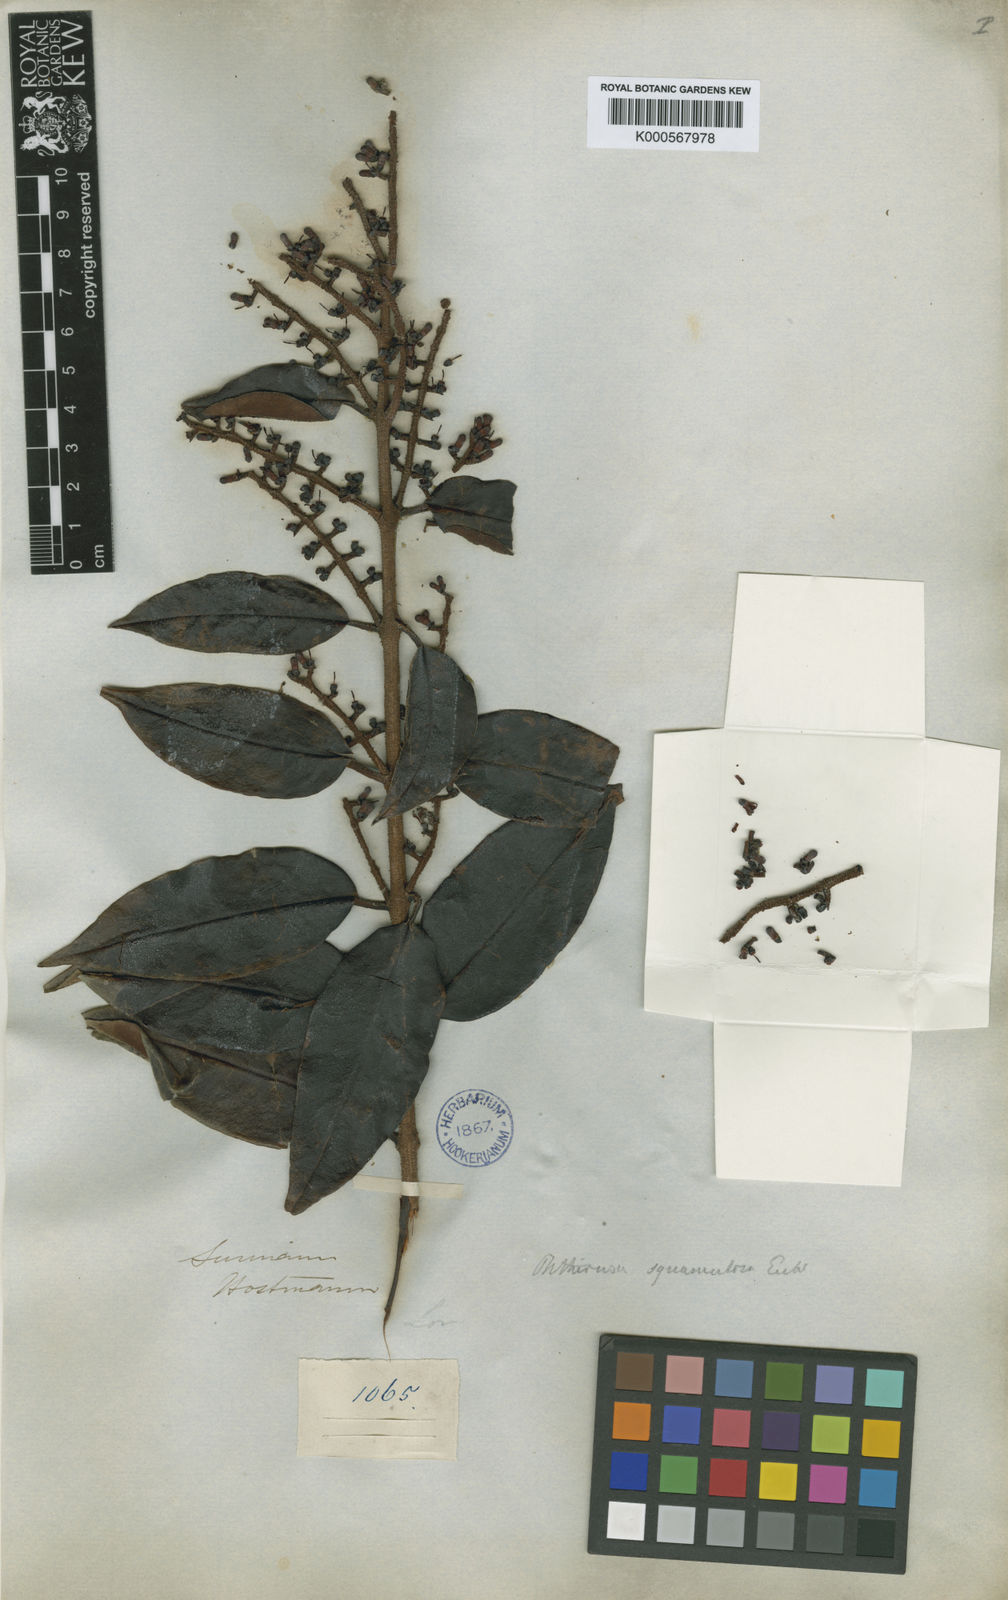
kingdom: Plantae
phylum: Tracheophyta
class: Magnoliopsida
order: Santalales
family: Loranthaceae
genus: Passovia
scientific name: Passovia rufa
